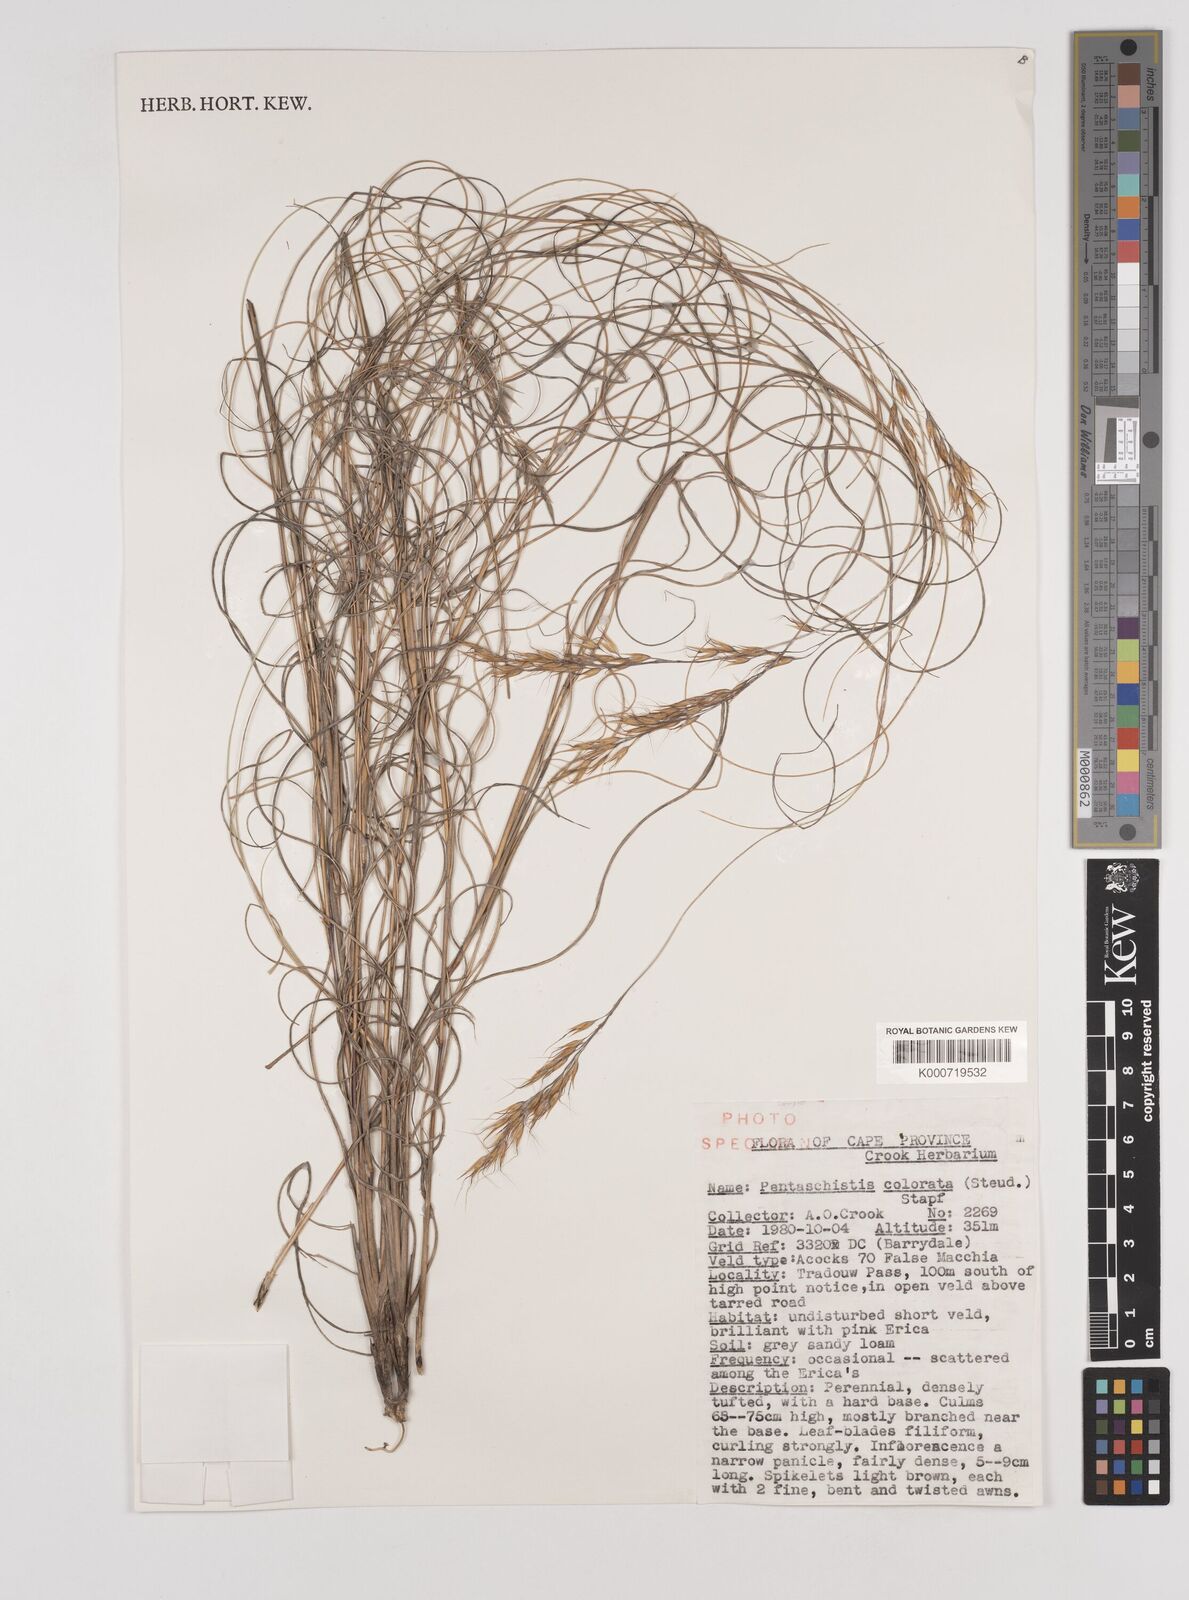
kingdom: Plantae
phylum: Tracheophyta
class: Liliopsida
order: Poales
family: Poaceae
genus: Pentameris
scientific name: Pentameris colorata
